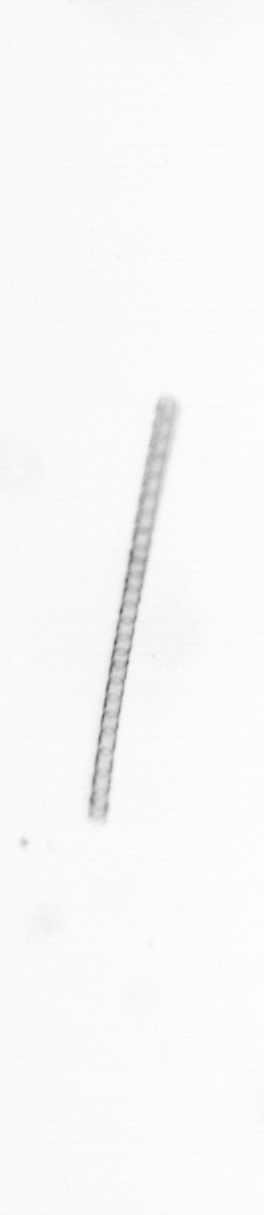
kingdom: Chromista
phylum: Ochrophyta
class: Bacillariophyceae
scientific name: Bacillariophyceae
